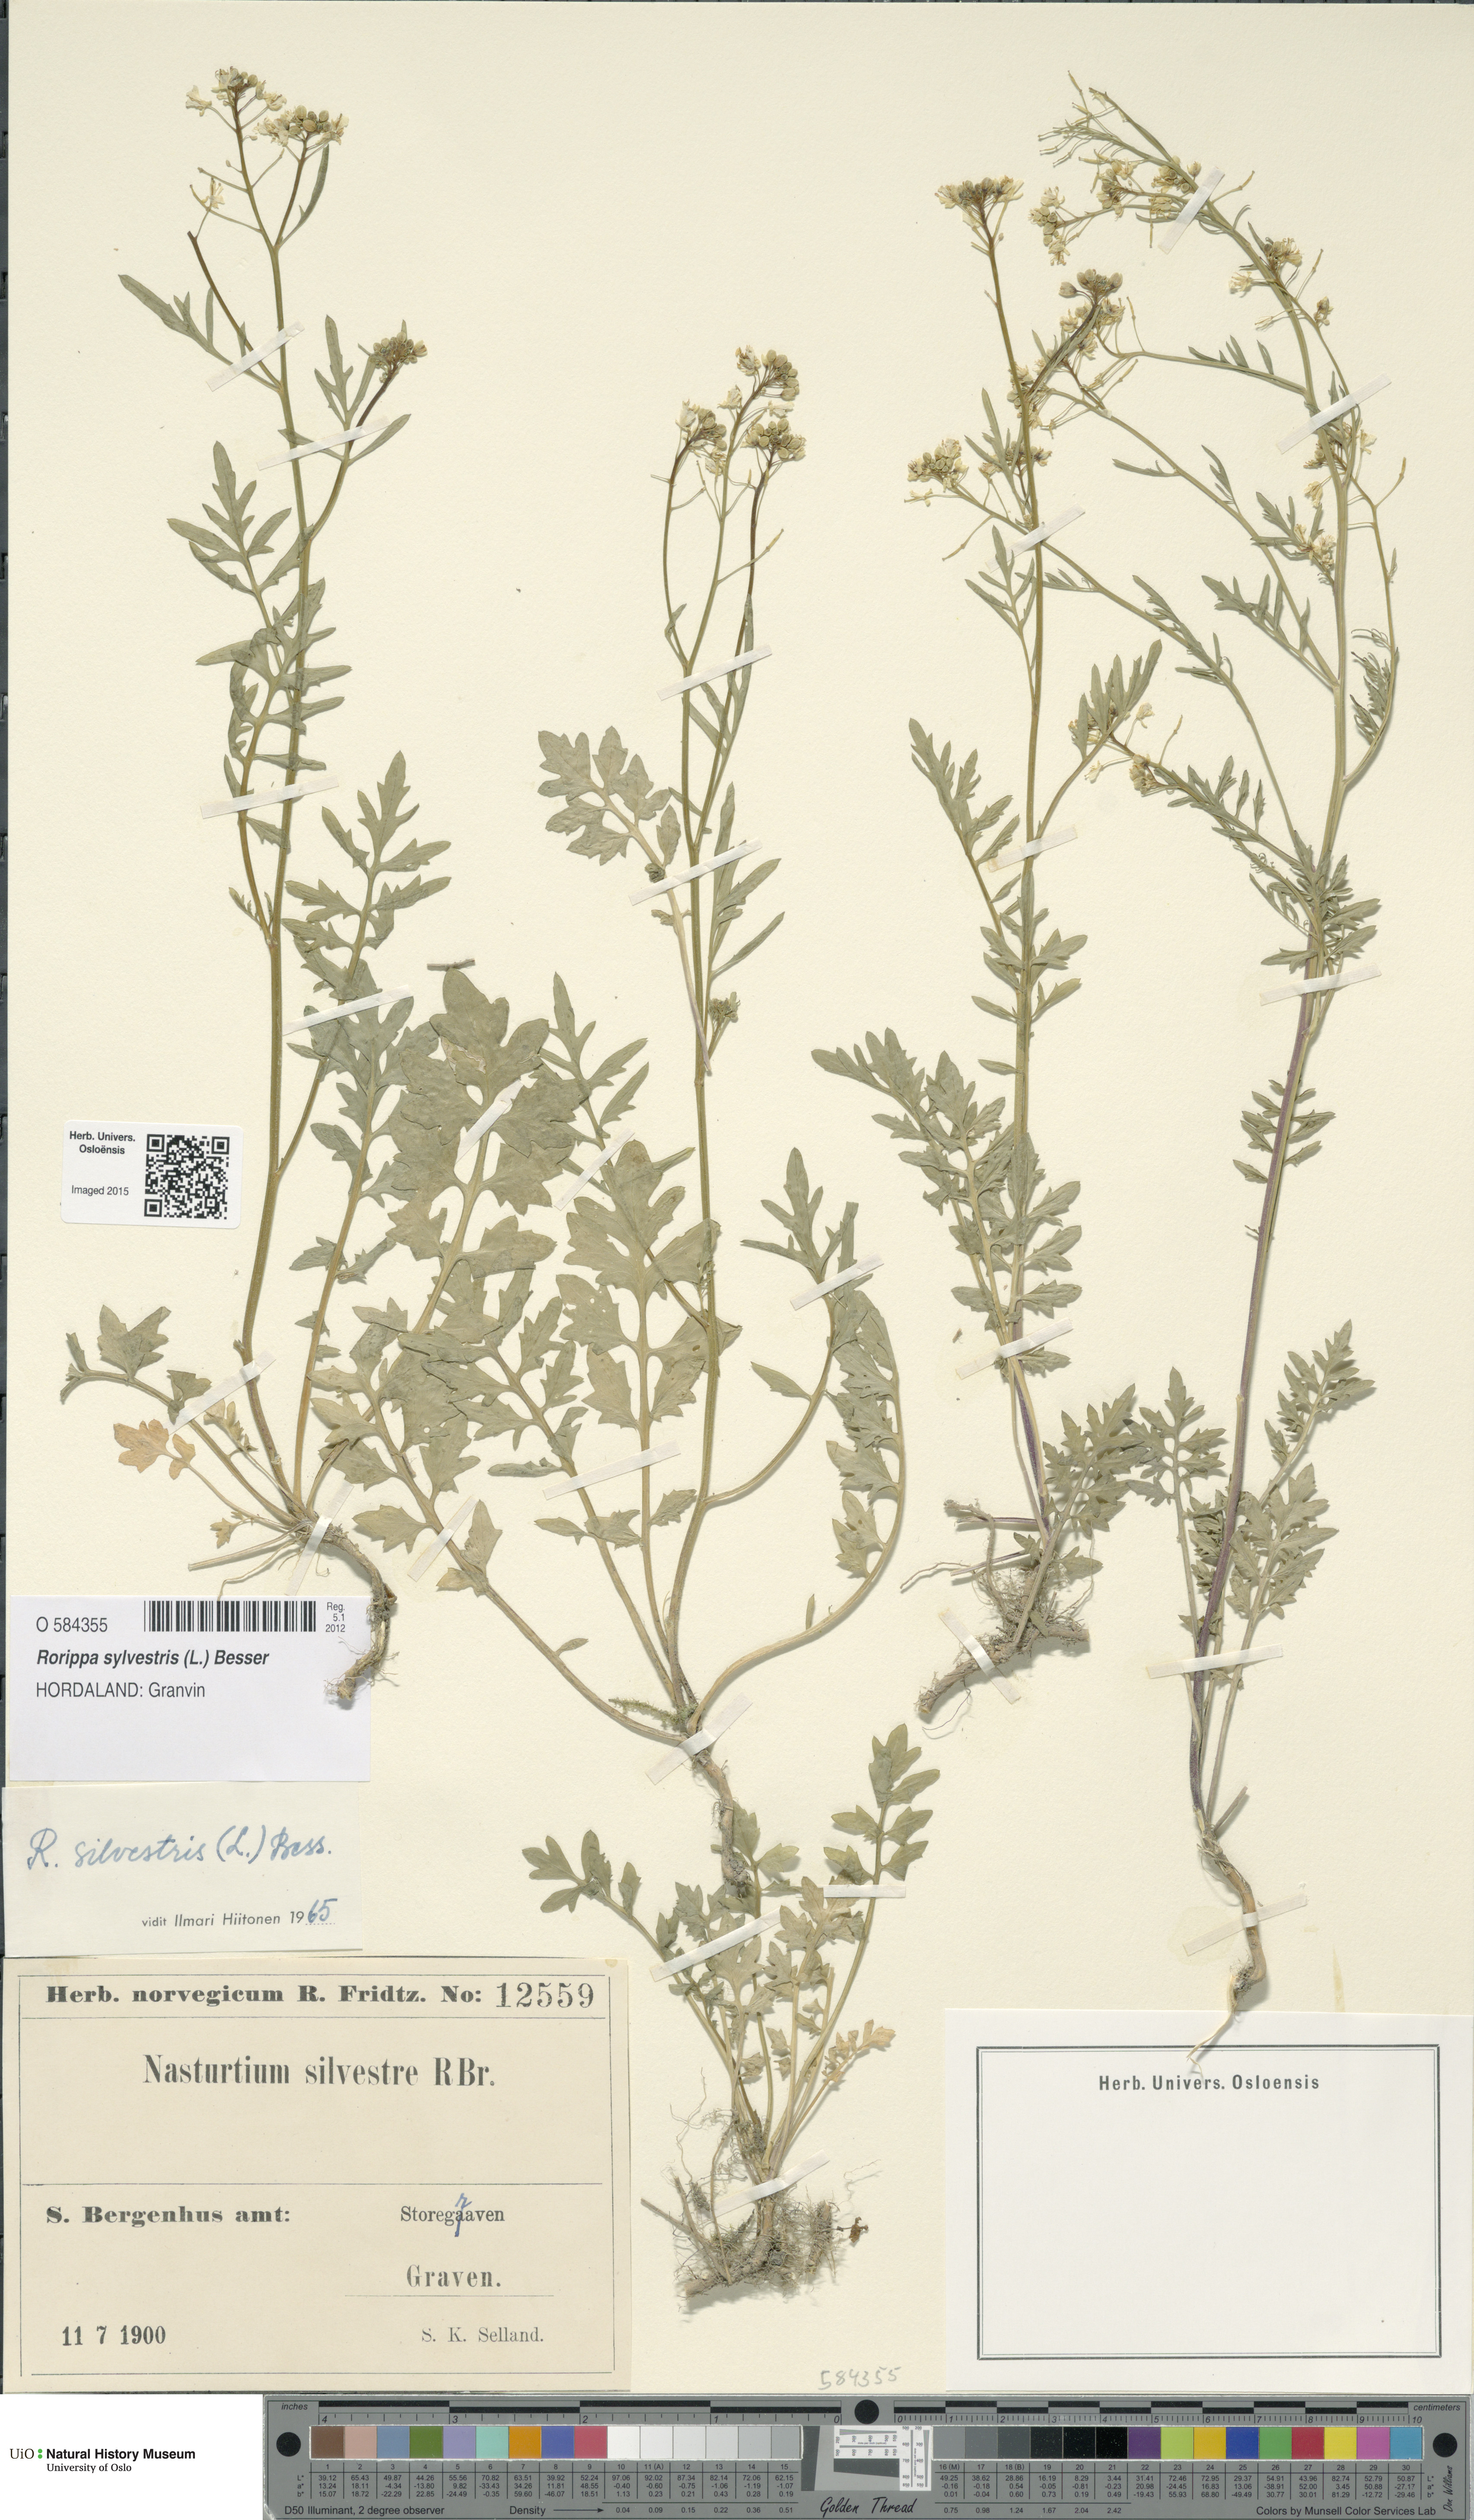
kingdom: Plantae
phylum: Tracheophyta
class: Magnoliopsida
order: Brassicales
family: Brassicaceae
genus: Rorippa
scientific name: Rorippa sylvestris
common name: Creeping yellowcress
